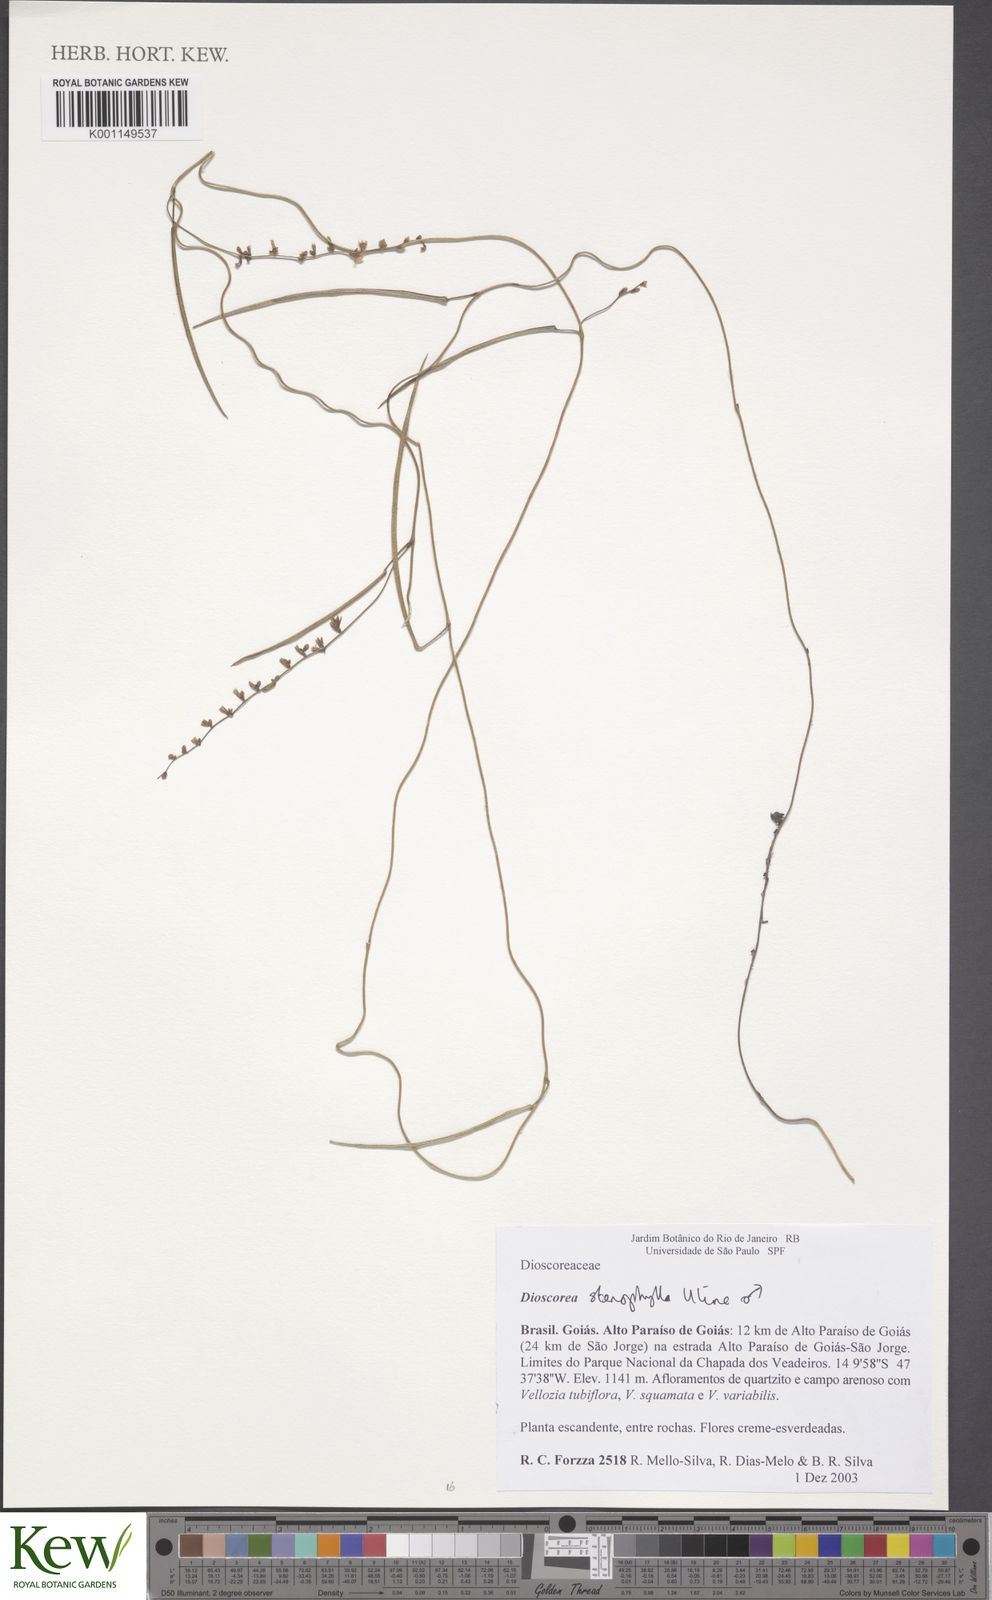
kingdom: Plantae
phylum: Tracheophyta
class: Liliopsida
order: Dioscoreales
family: Dioscoreaceae
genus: Dioscorea
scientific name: Dioscorea stenophylla
